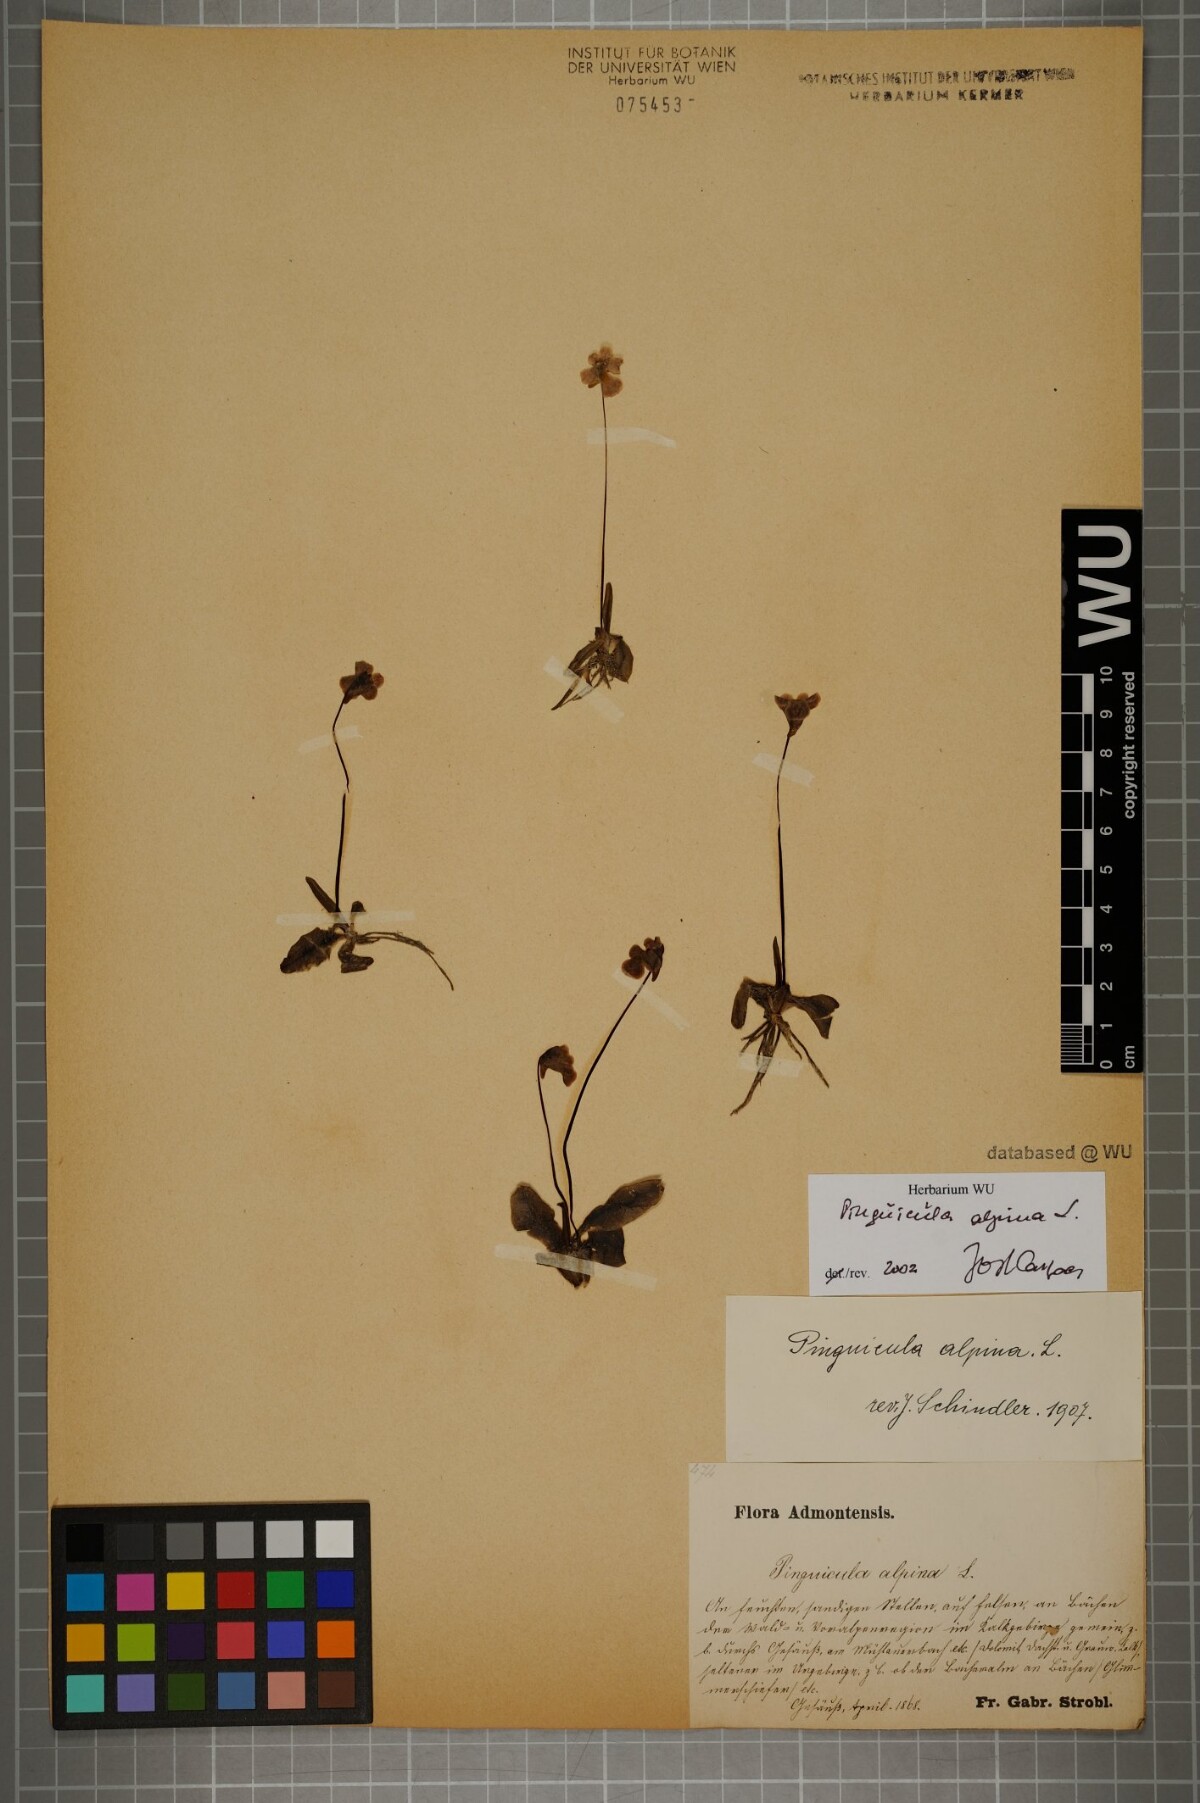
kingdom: Plantae
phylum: Tracheophyta
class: Magnoliopsida
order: Lamiales
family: Lentibulariaceae
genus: Pinguicula
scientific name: Pinguicula alpina
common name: Alpine butterwort
